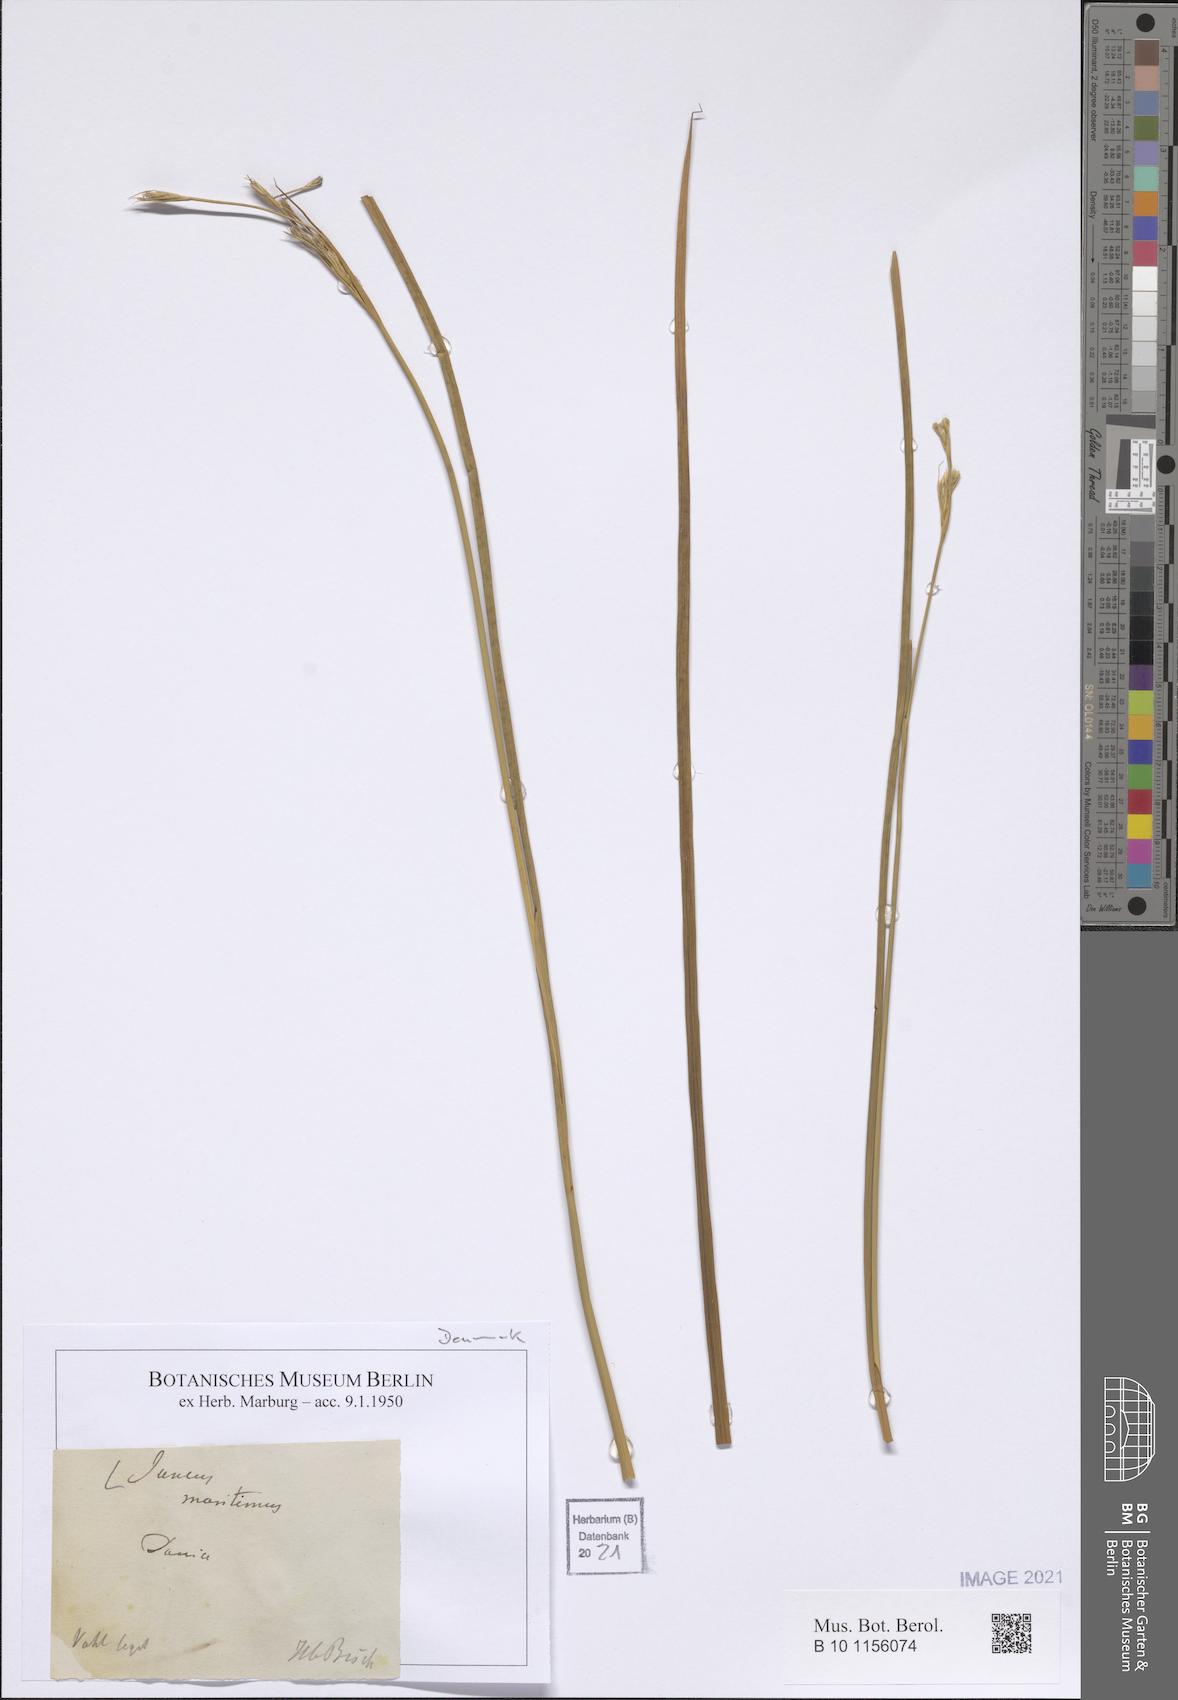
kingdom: Plantae
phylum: Tracheophyta
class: Liliopsida
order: Poales
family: Juncaceae
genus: Juncus
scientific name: Juncus maritimus
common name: Sea rush
